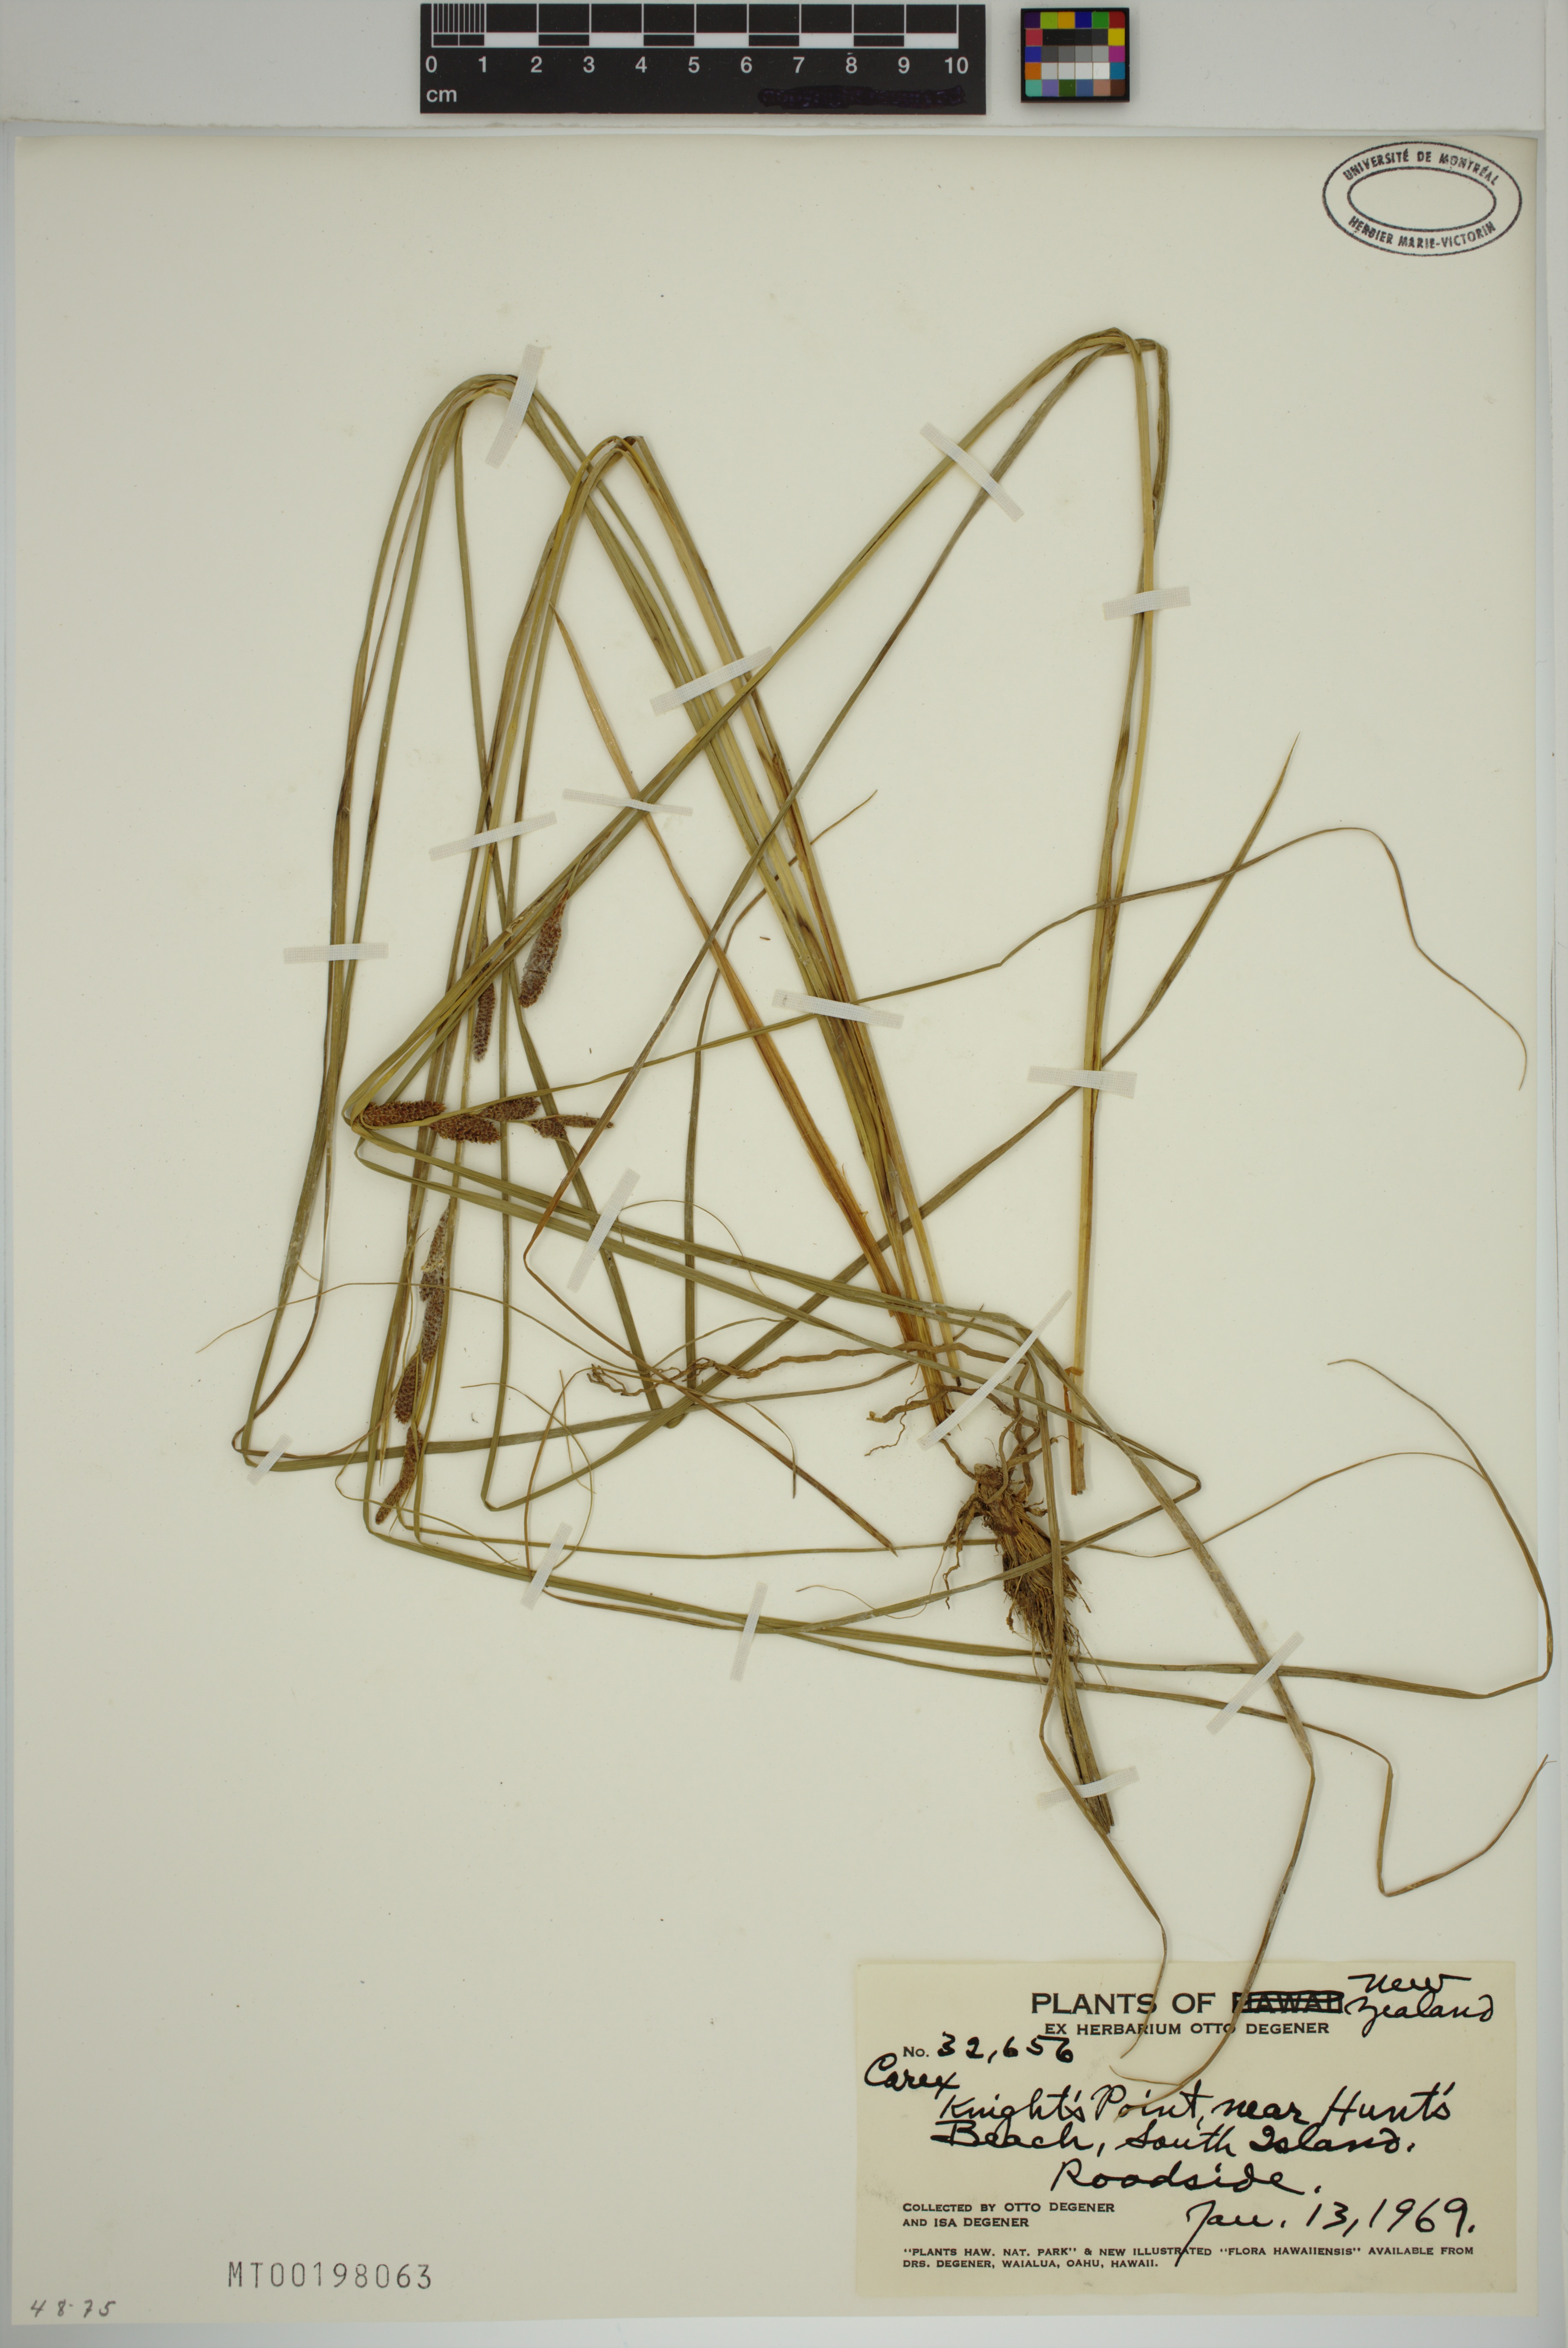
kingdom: Plantae
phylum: Tracheophyta
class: Liliopsida
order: Poales
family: Cyperaceae
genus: Carex
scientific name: Carex
